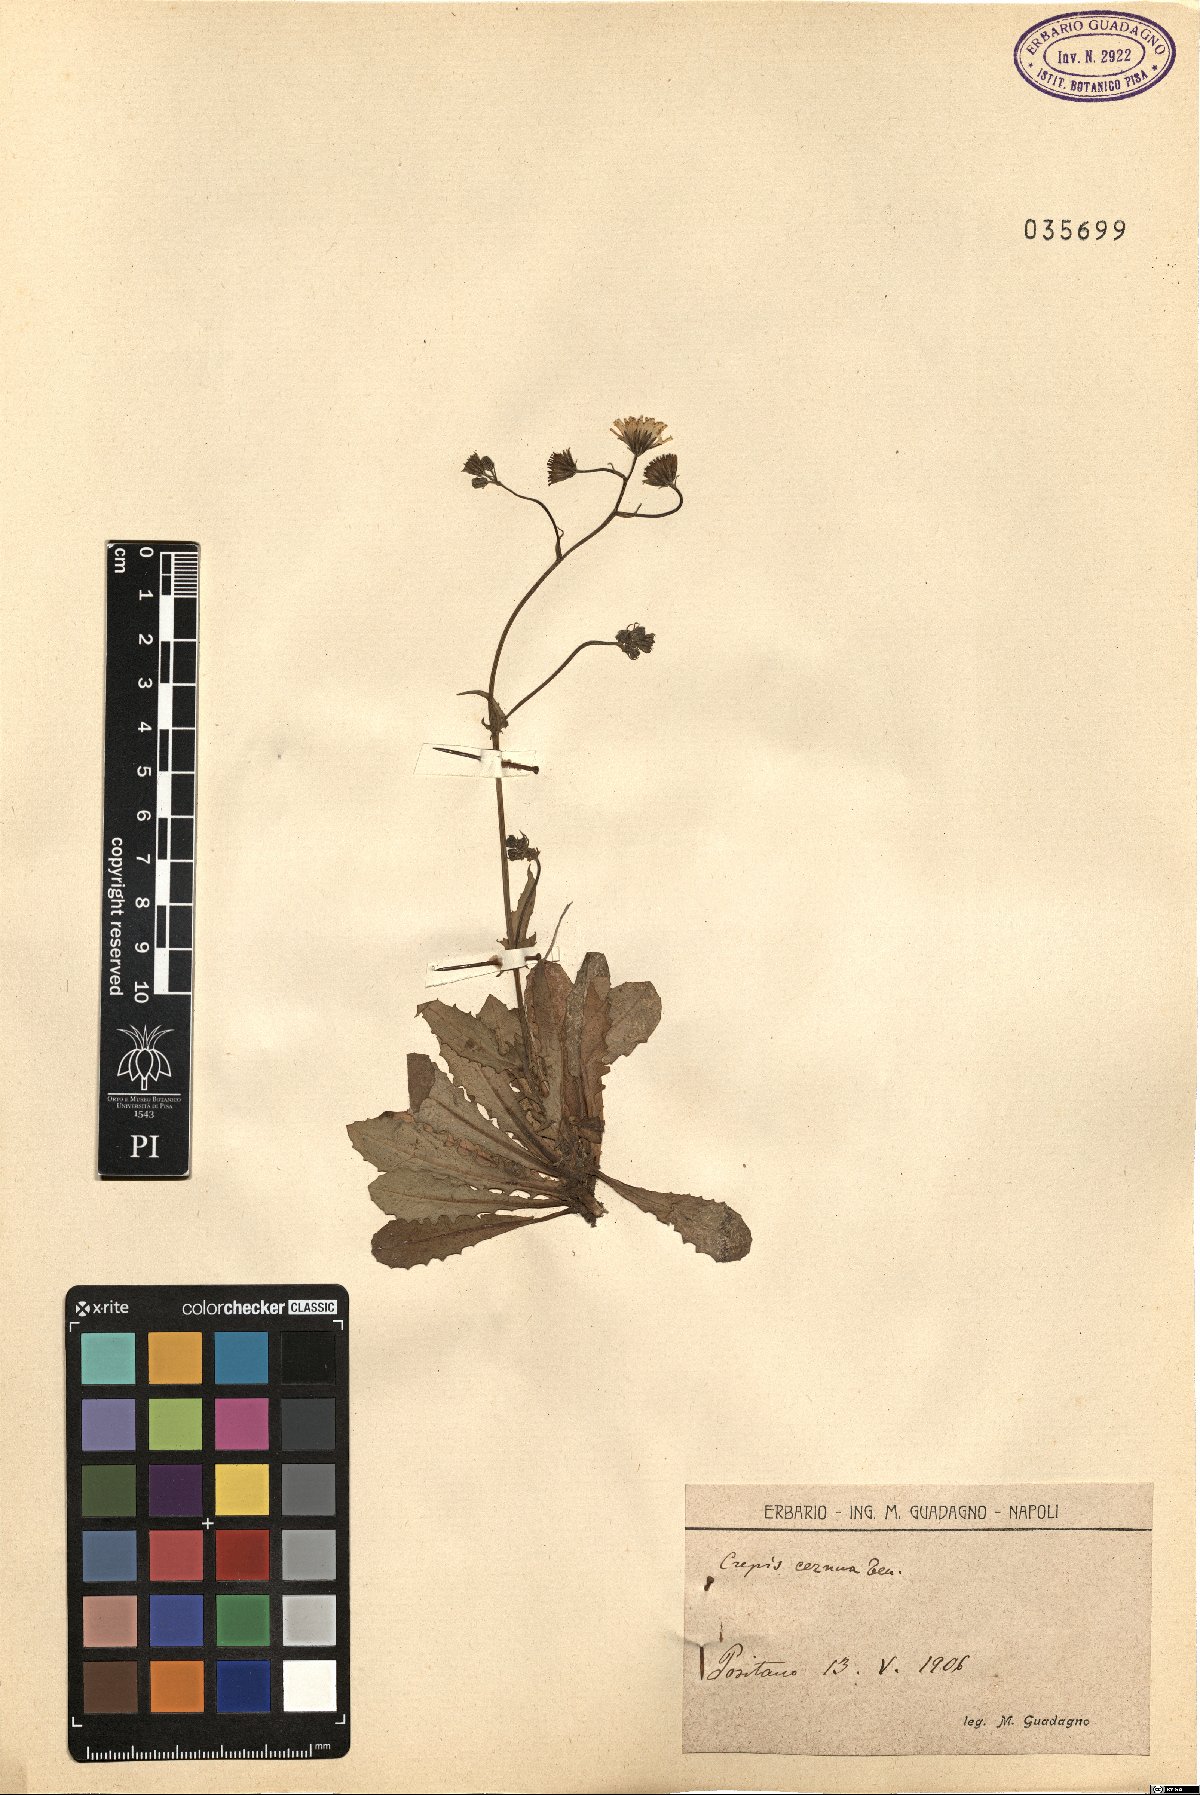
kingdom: Plantae
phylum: Tracheophyta
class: Magnoliopsida
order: Asterales
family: Asteraceae
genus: Crepis
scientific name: Crepis neglecta
